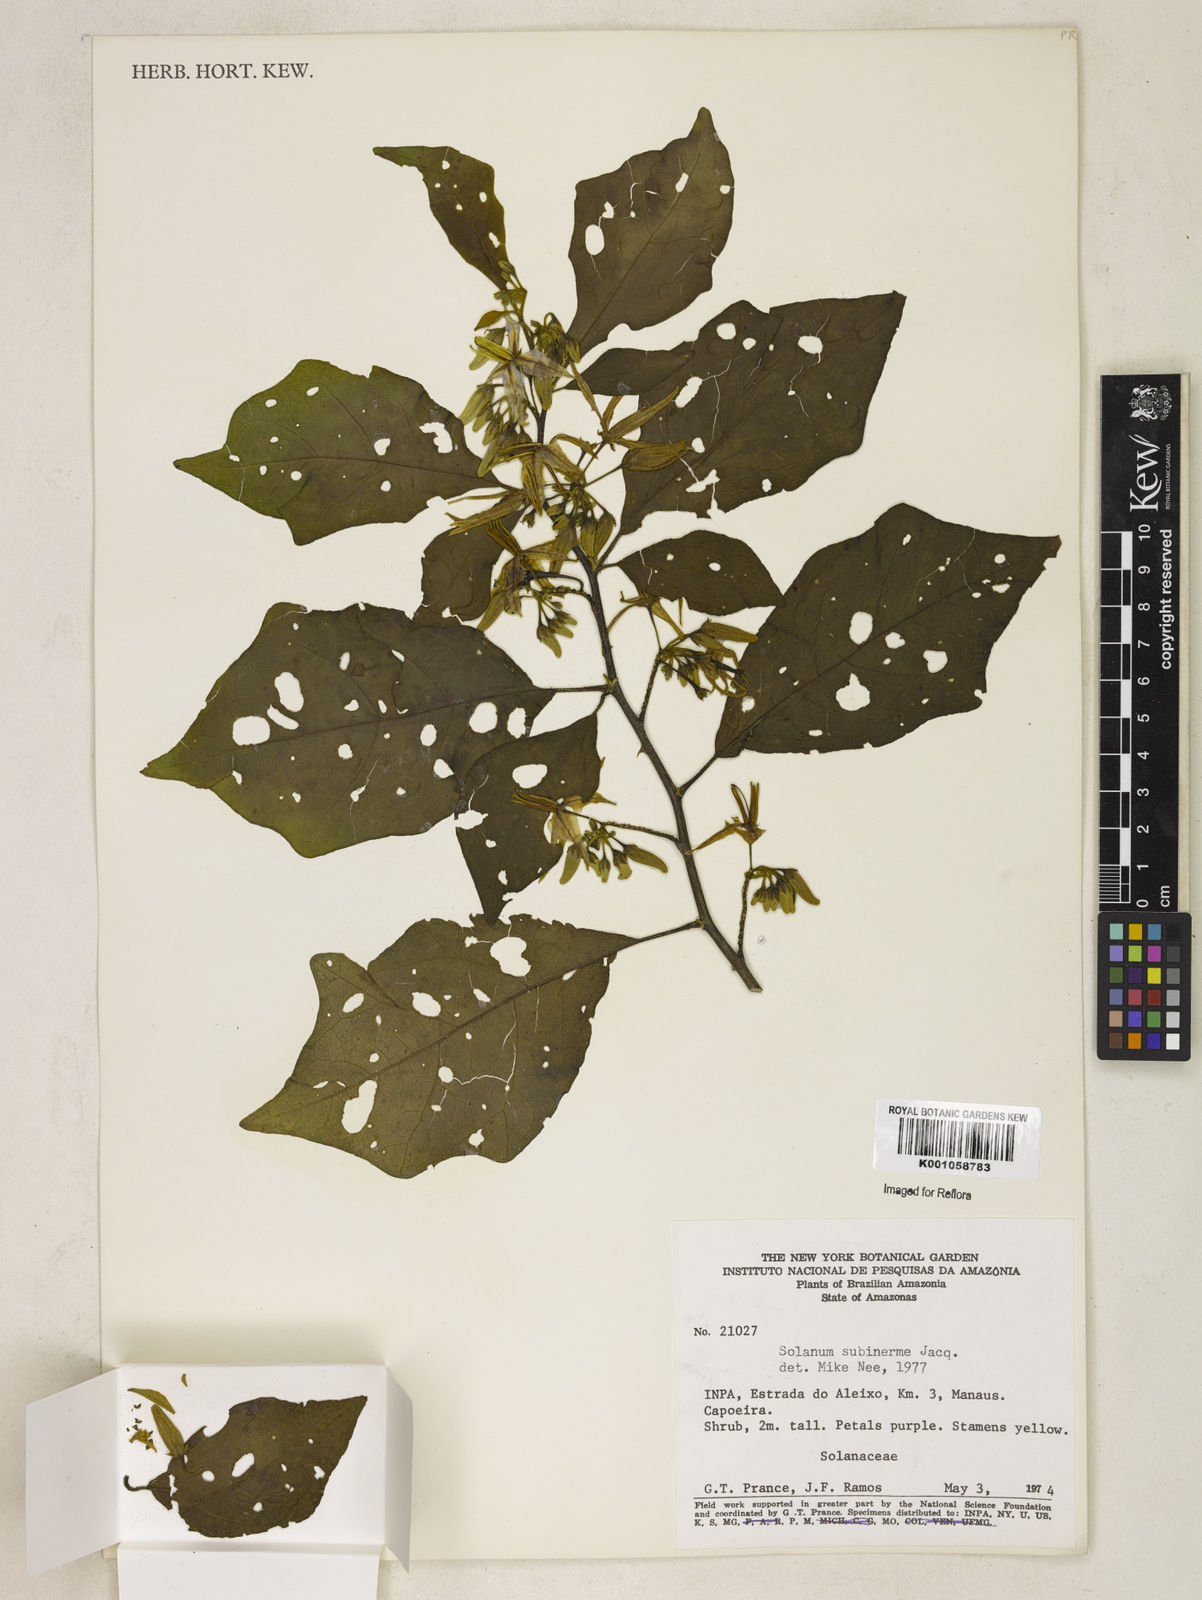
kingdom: Plantae
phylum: Tracheophyta
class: Magnoliopsida
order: Solanales
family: Solanaceae
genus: Solanum
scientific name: Solanum subinerme
